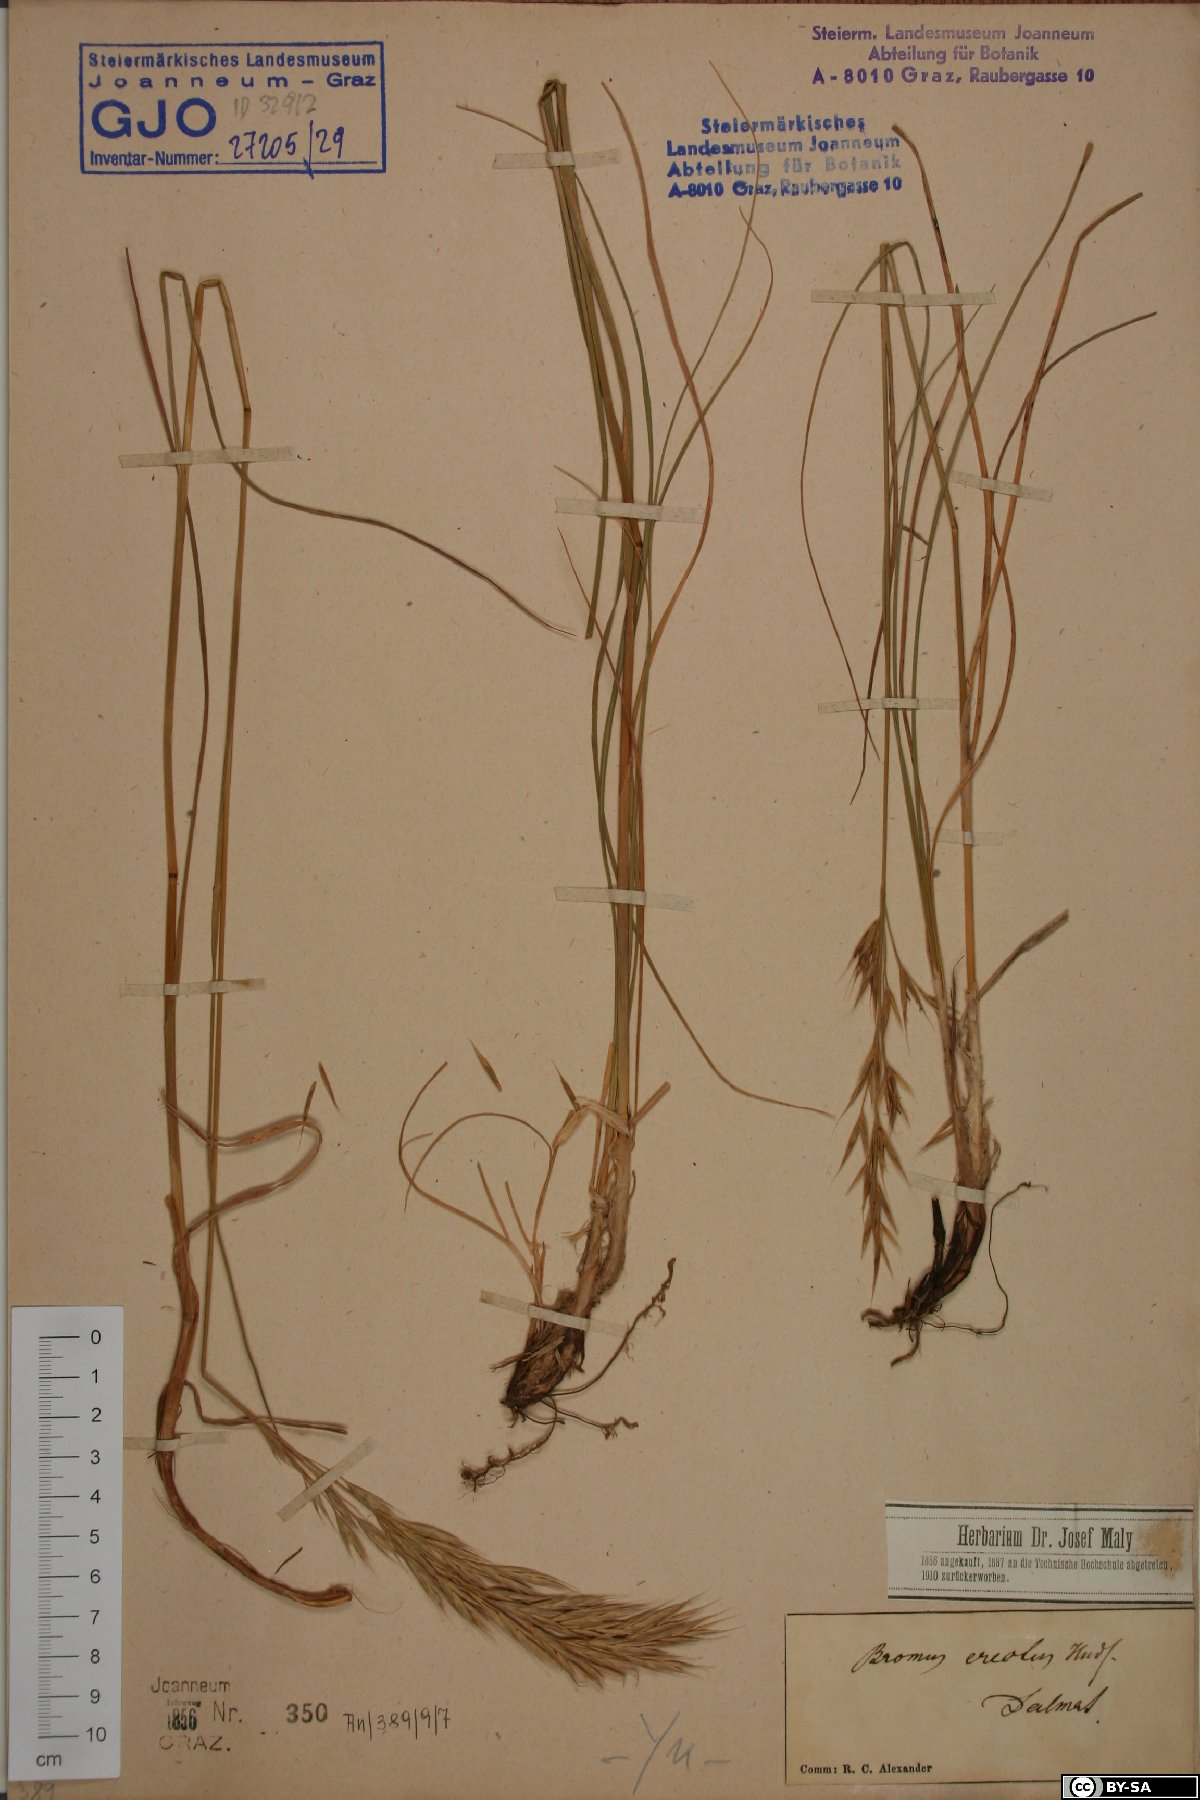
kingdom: Plantae
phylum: Tracheophyta
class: Liliopsida
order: Poales
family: Poaceae
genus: Bromus
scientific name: Bromus erectus
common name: Erect brome
